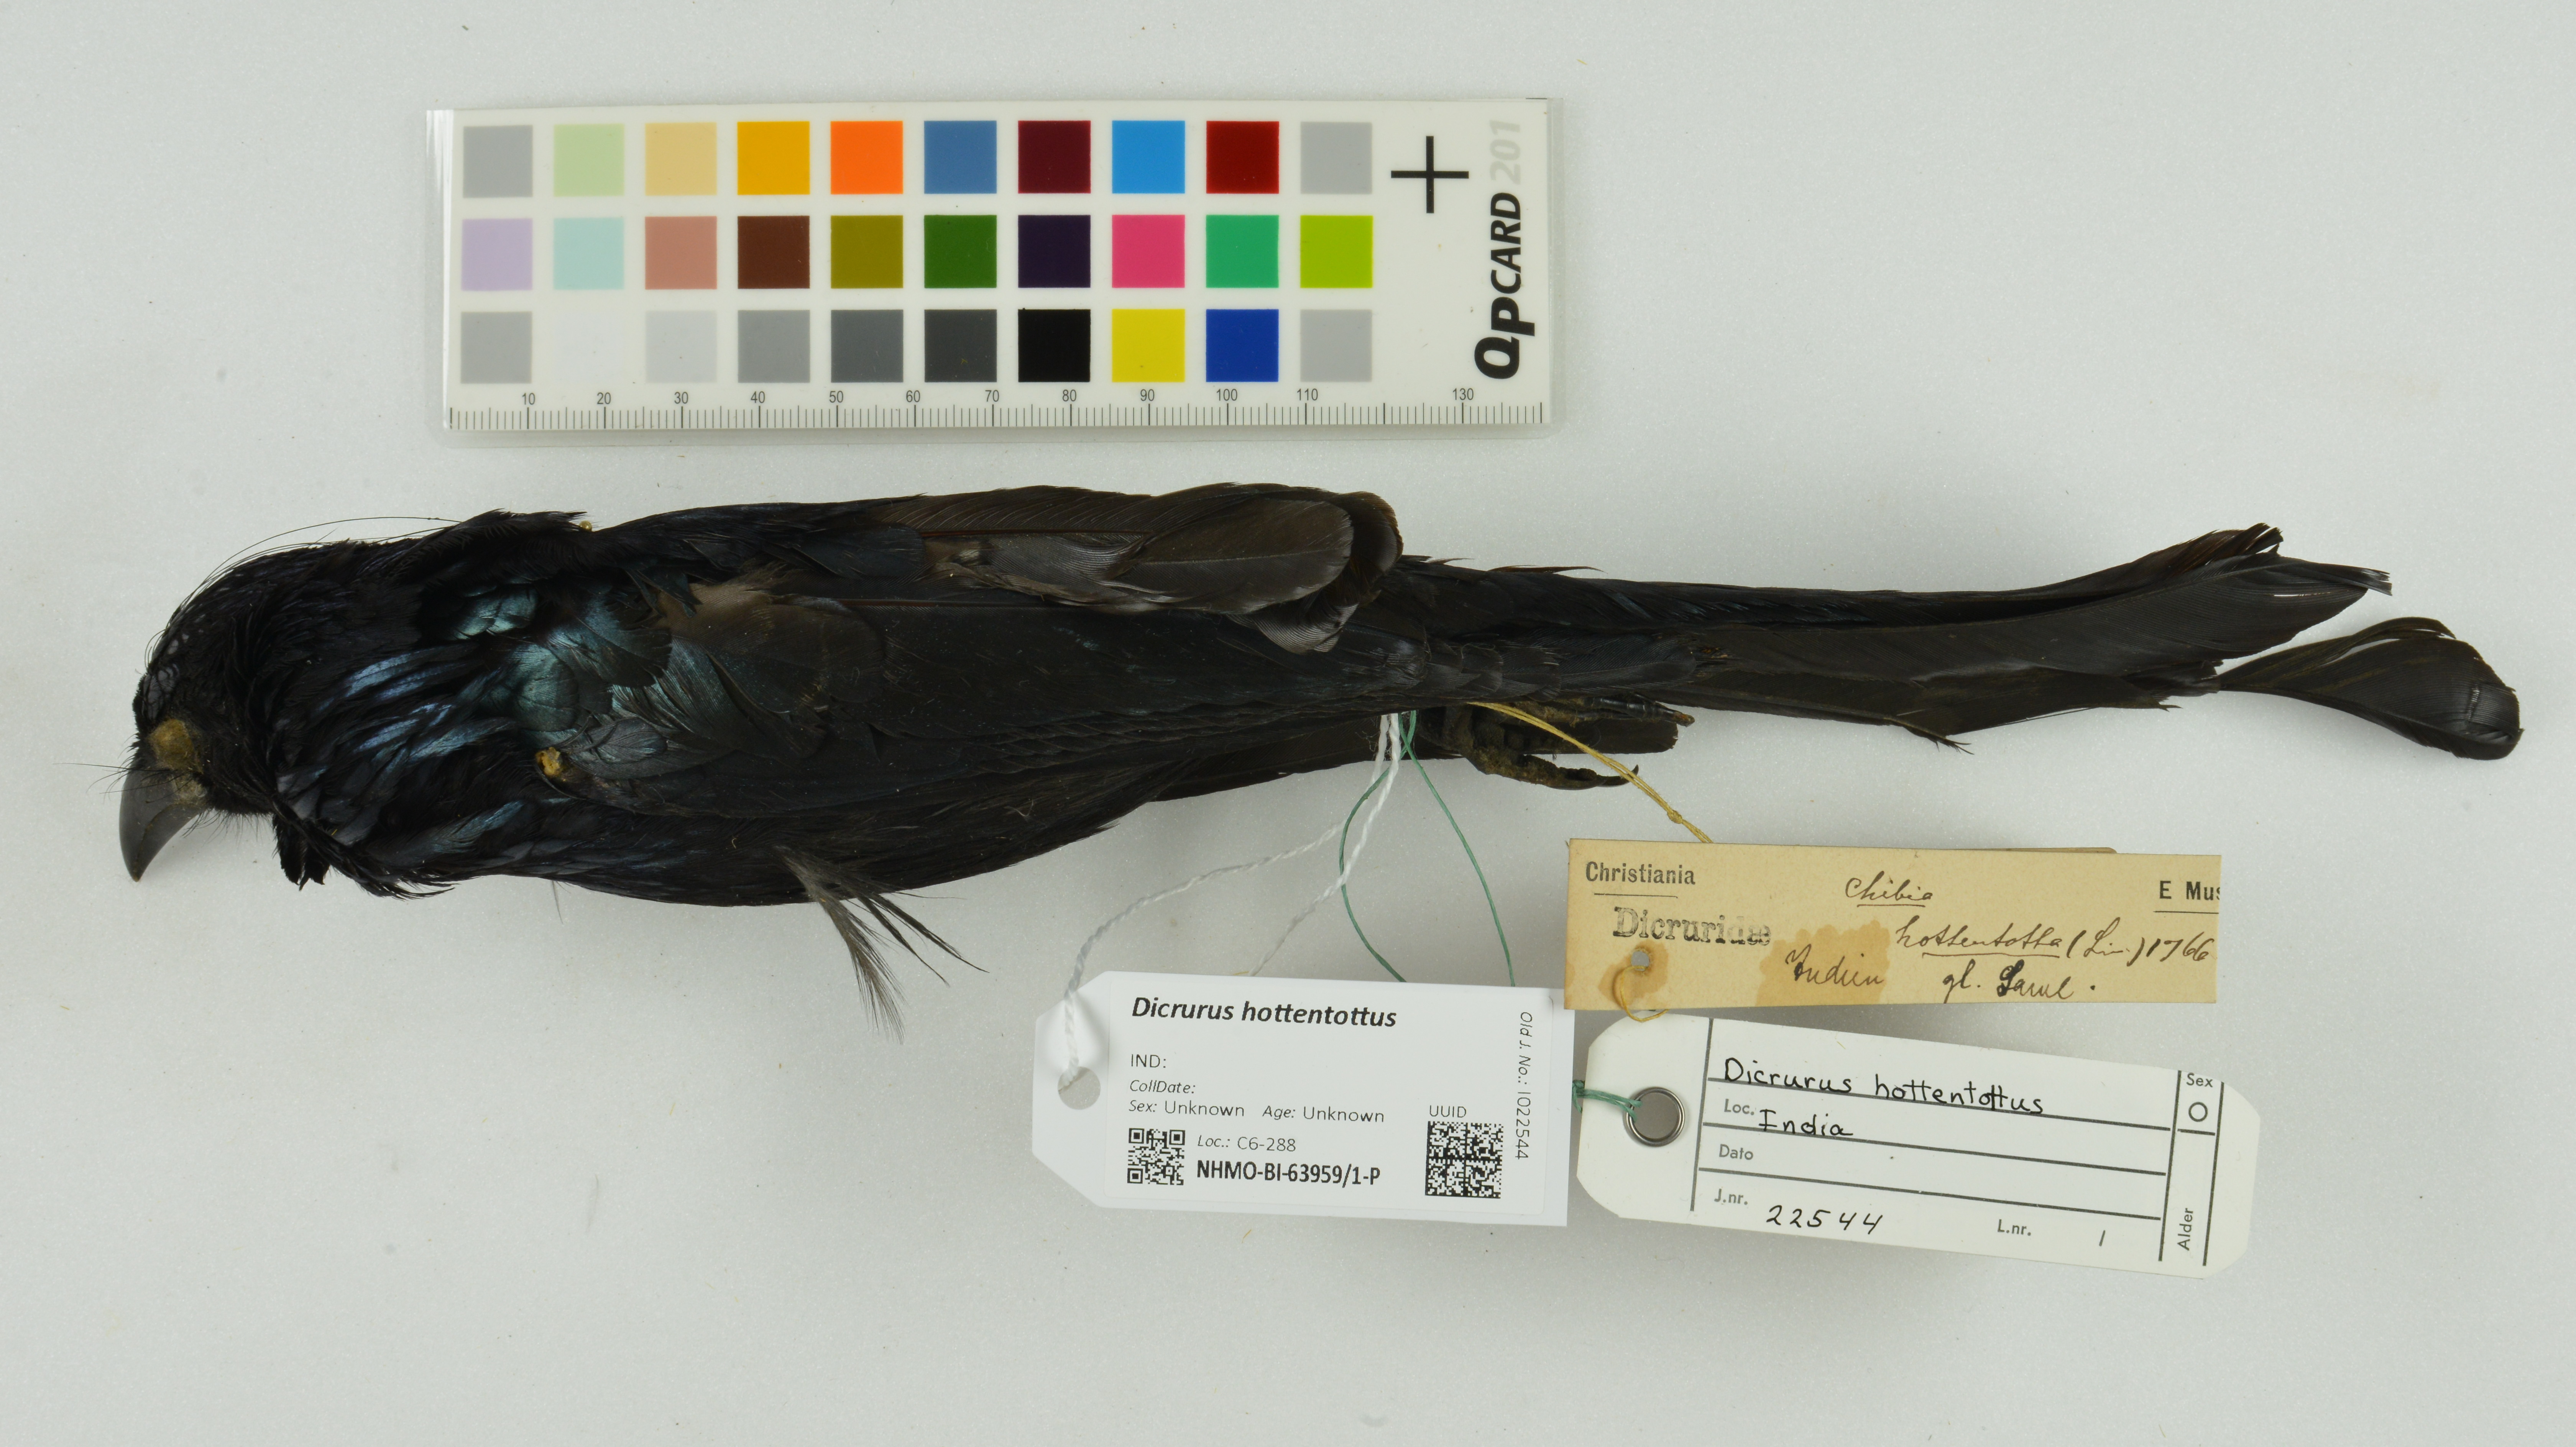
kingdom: Animalia
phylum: Chordata
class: Aves
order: Passeriformes
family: Dicruridae
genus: Dicrurus
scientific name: Dicrurus hottentottus
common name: Hair-crested drongo
